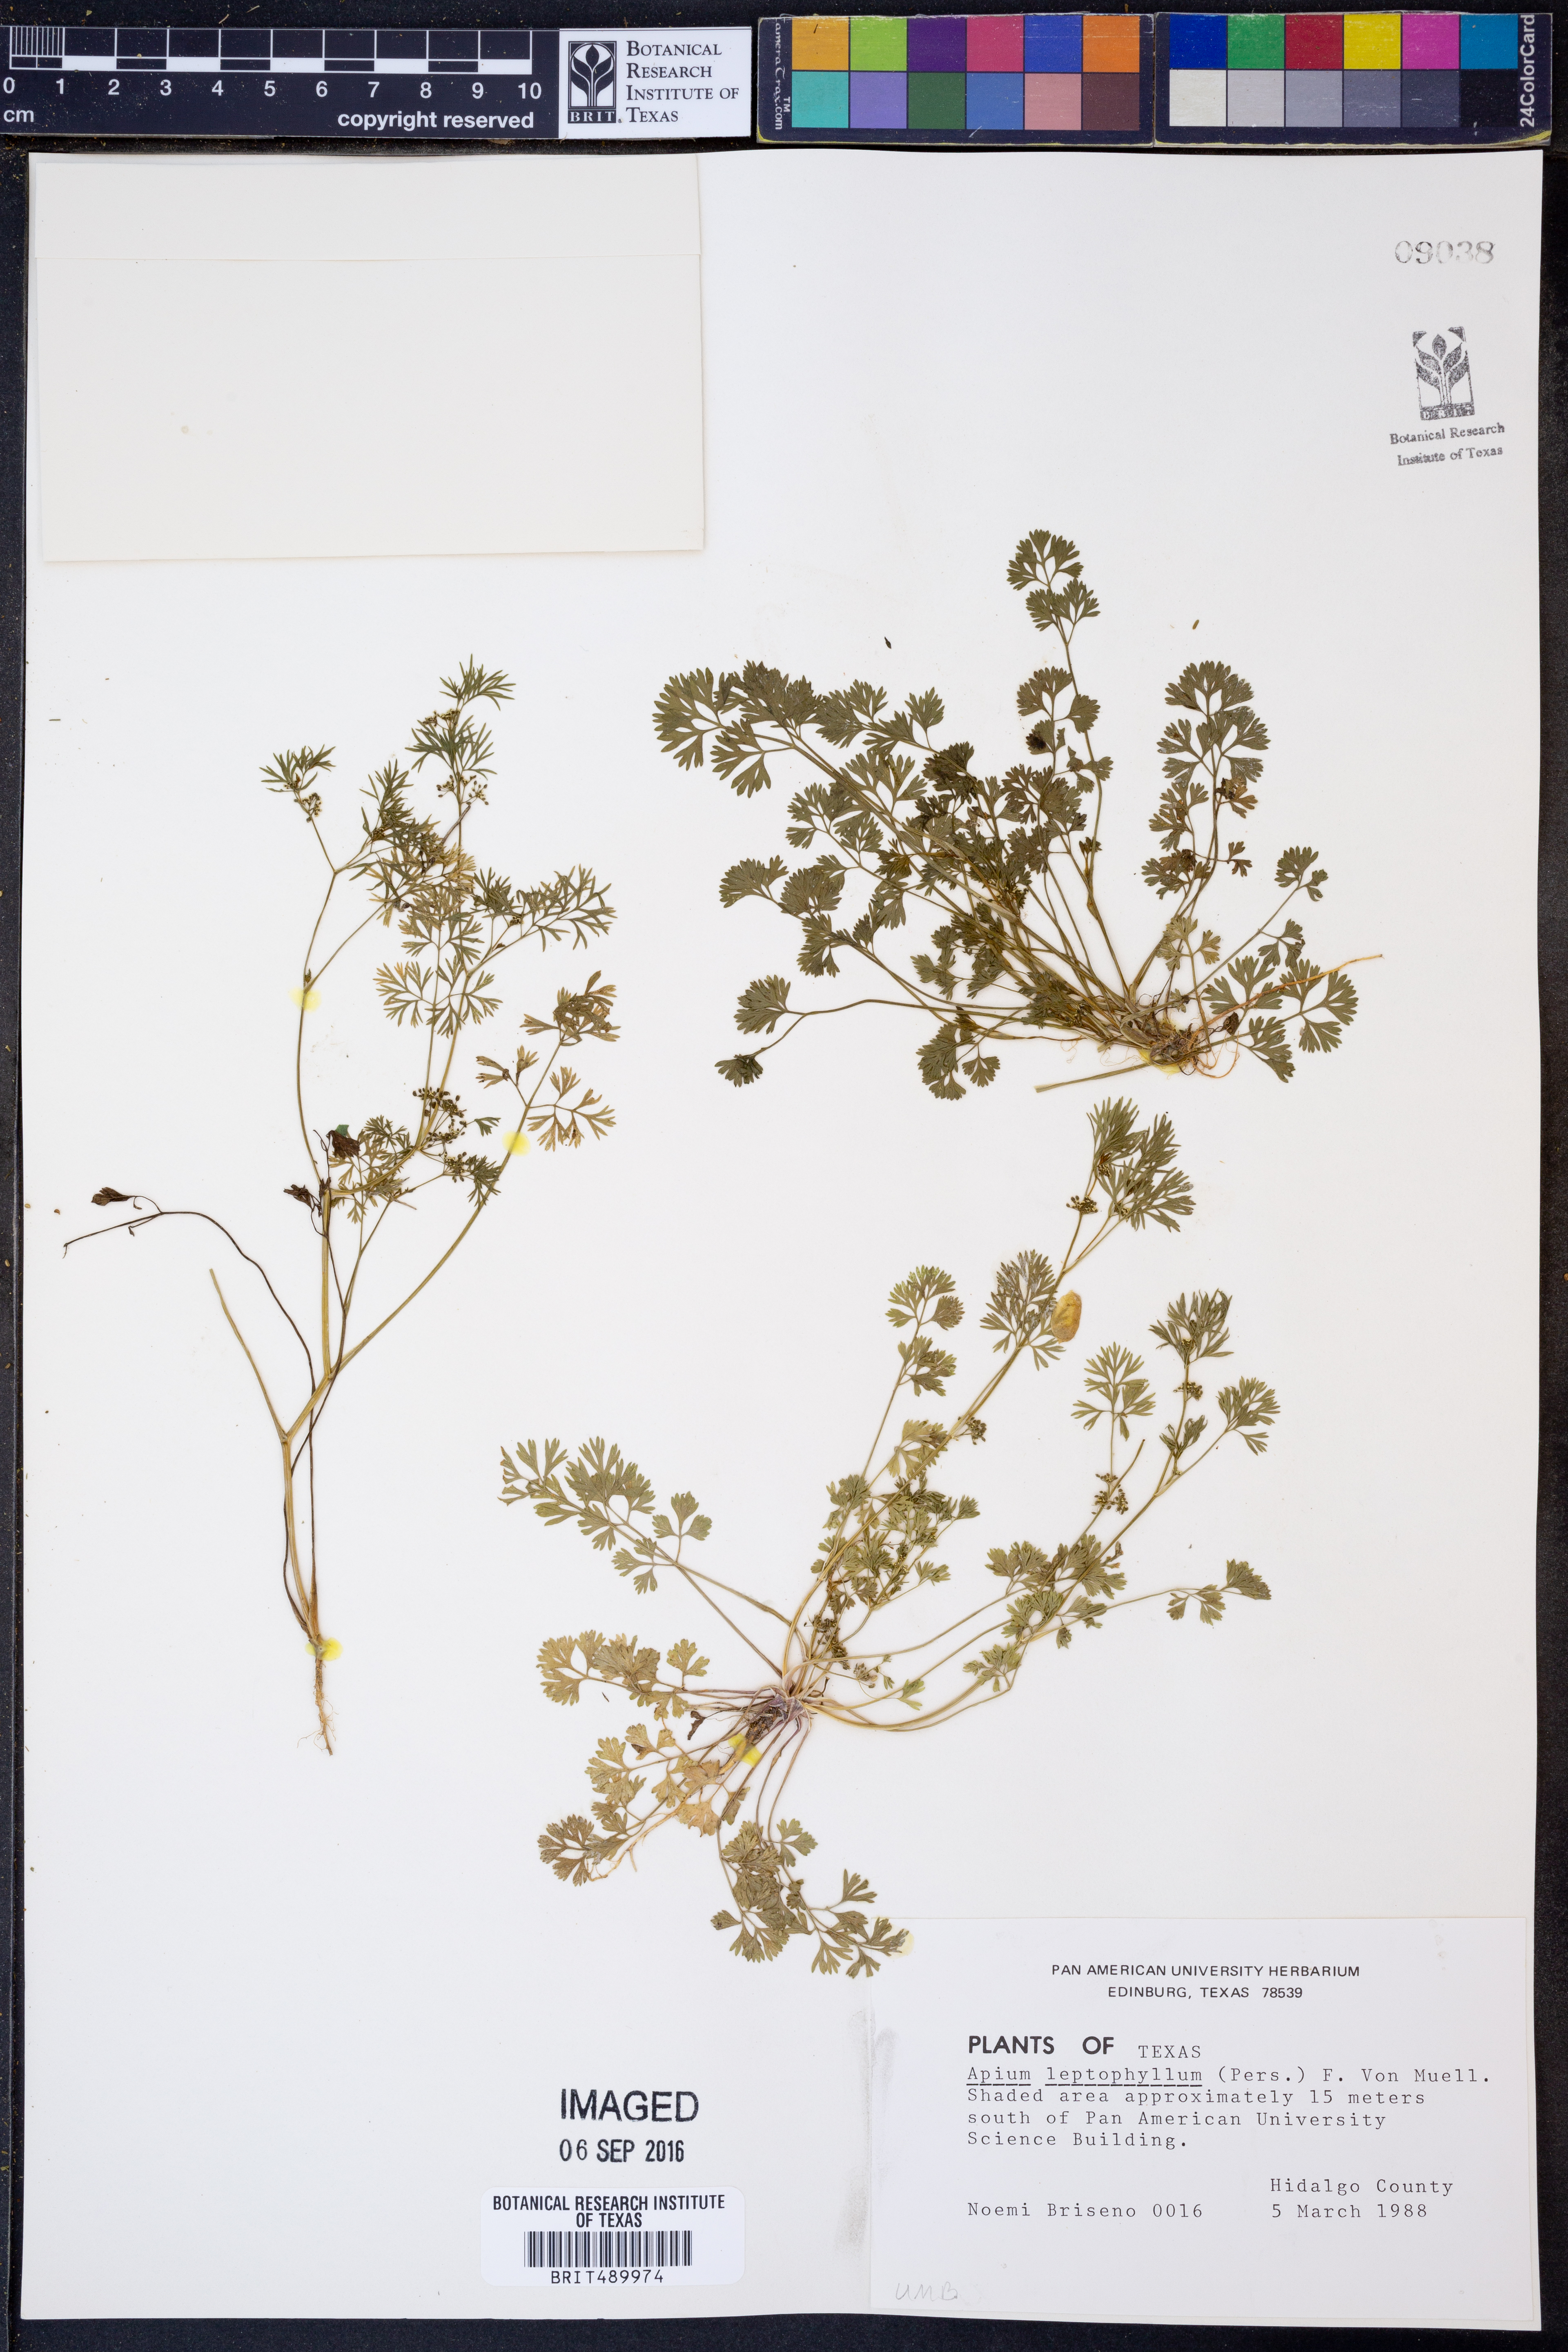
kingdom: Plantae
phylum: Tracheophyta
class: Magnoliopsida
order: Apiales
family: Apiaceae
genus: Cyclospermum
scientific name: Cyclospermum leptophyllum
